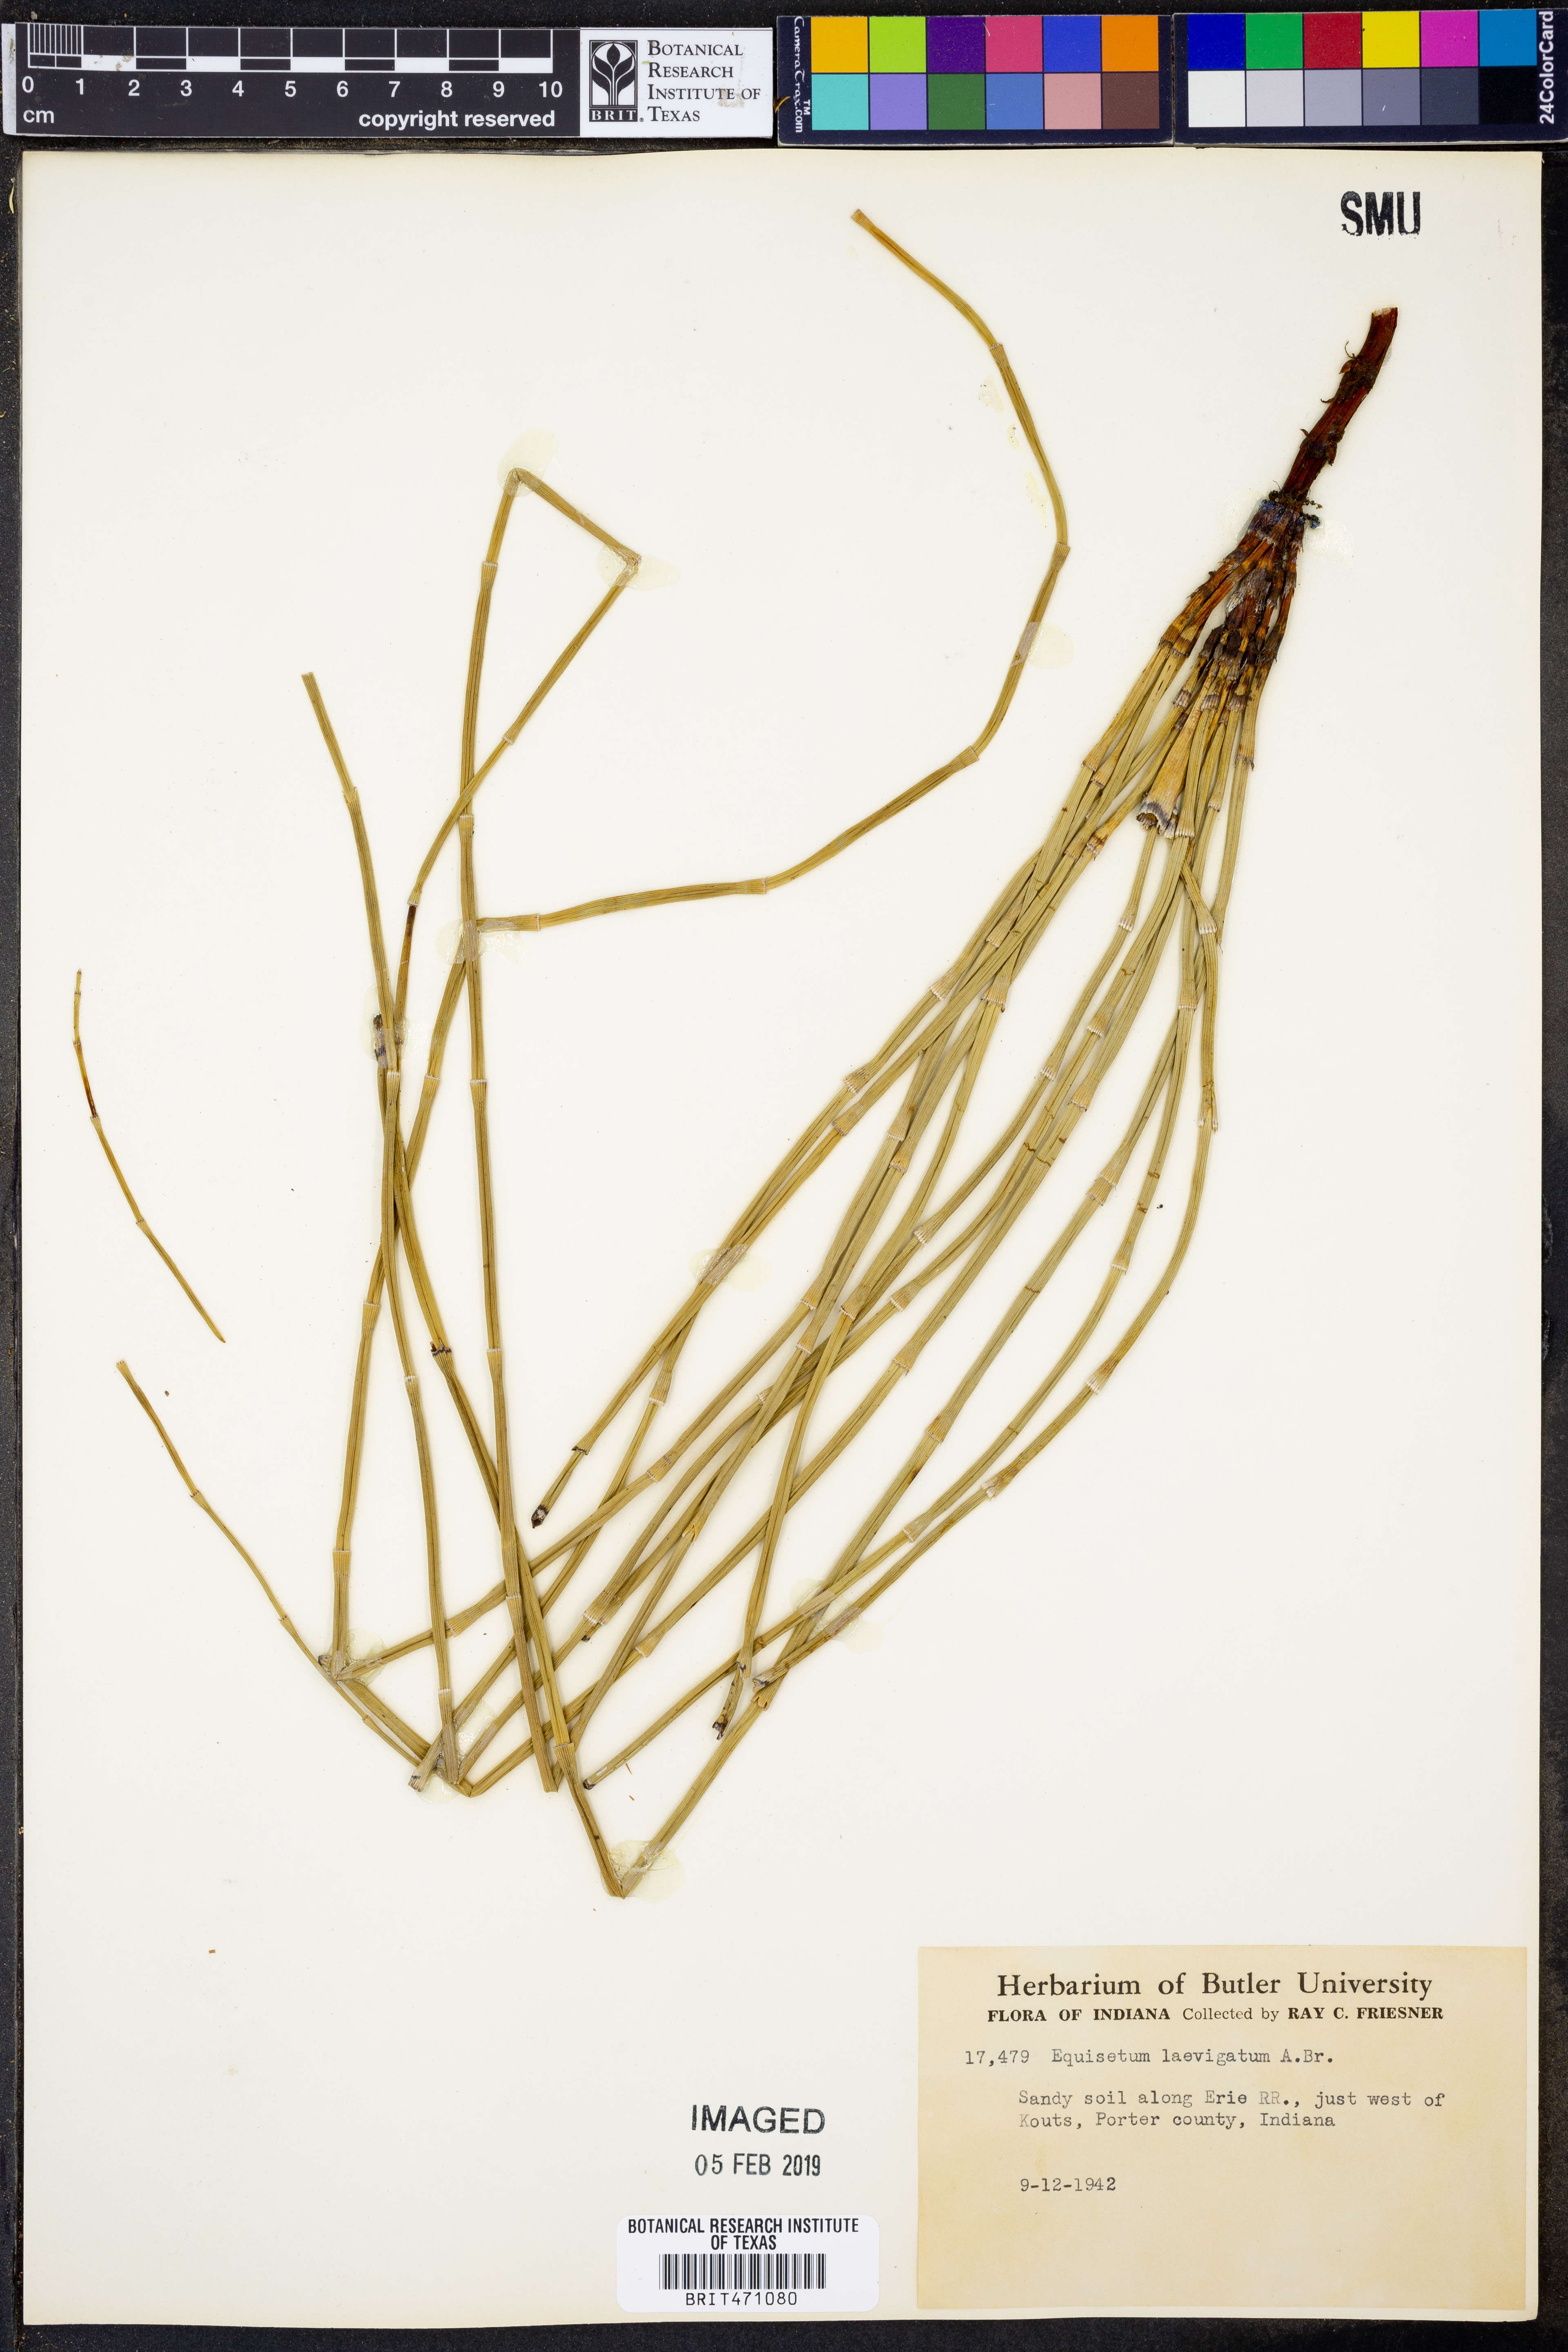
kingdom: Plantae
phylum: Tracheophyta
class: Polypodiopsida
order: Equisetales
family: Equisetaceae
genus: Equisetum
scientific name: Equisetum laevigatum
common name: Smooth scouring-rush
